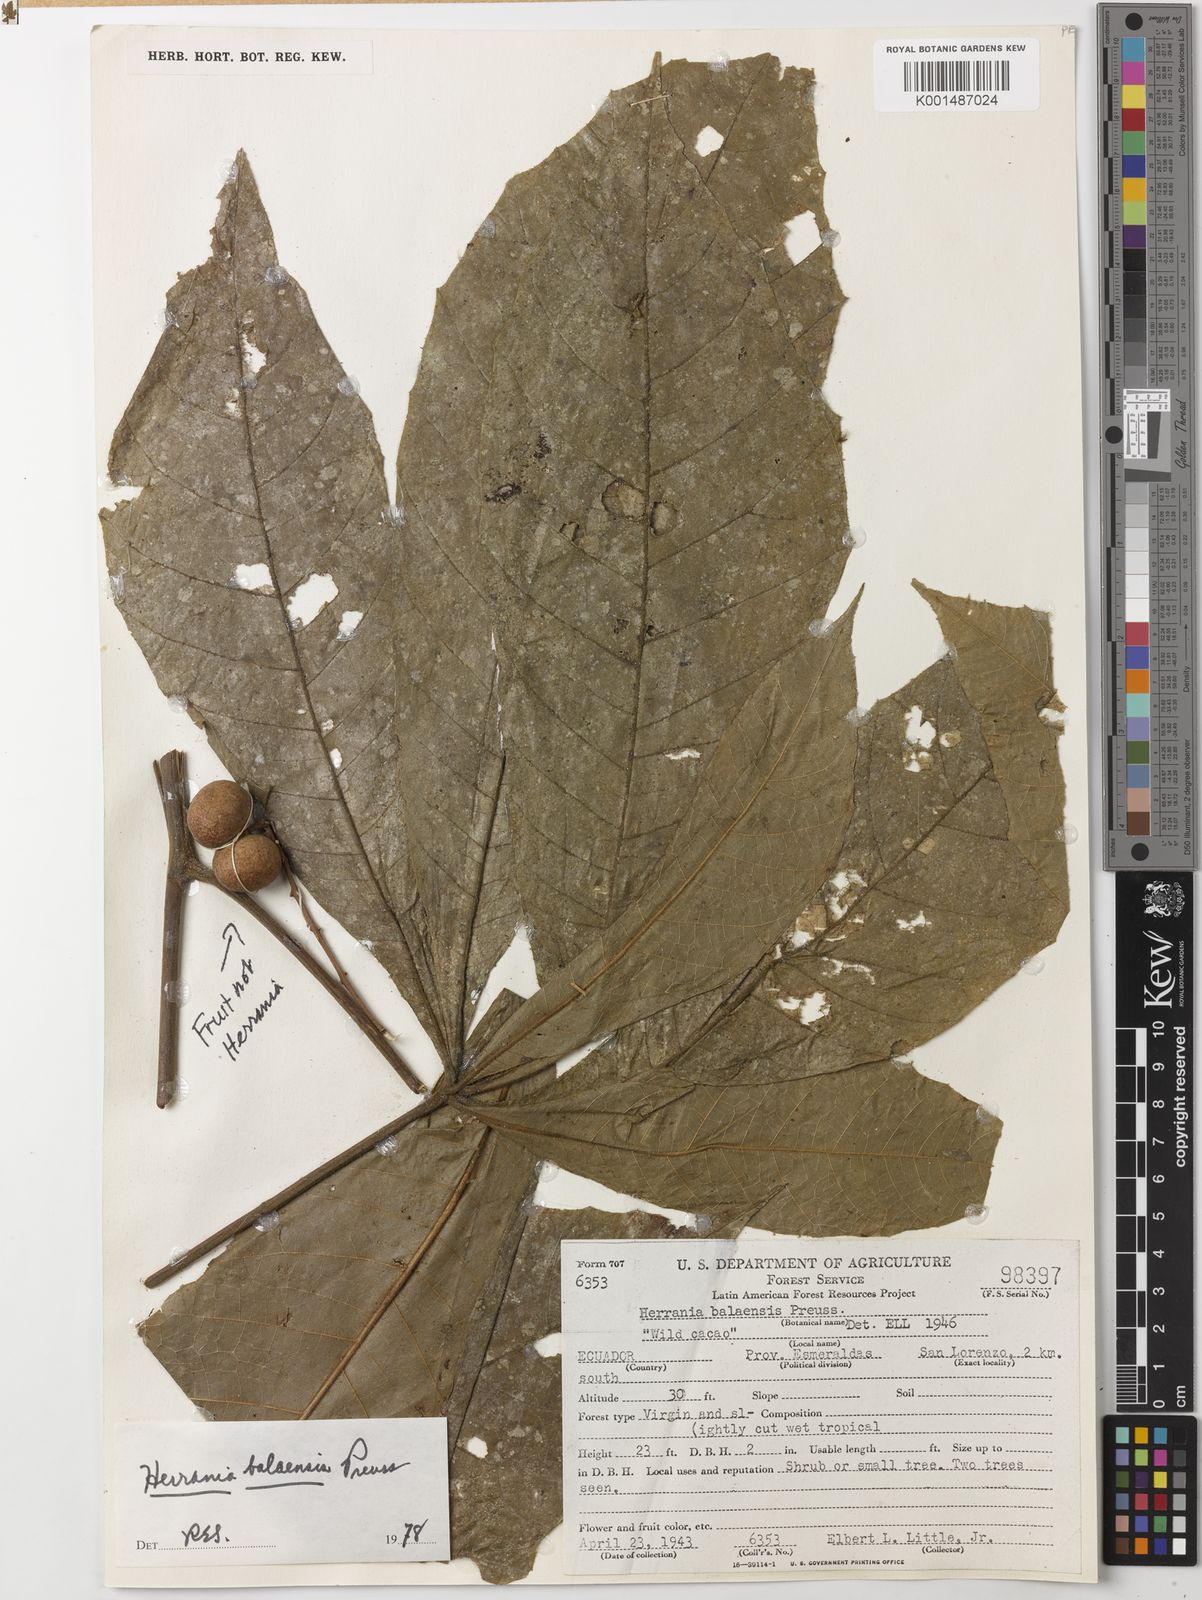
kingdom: Plantae
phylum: Tracheophyta
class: Magnoliopsida
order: Malvales
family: Malvaceae
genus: Herrania
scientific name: Herrania balaensis
